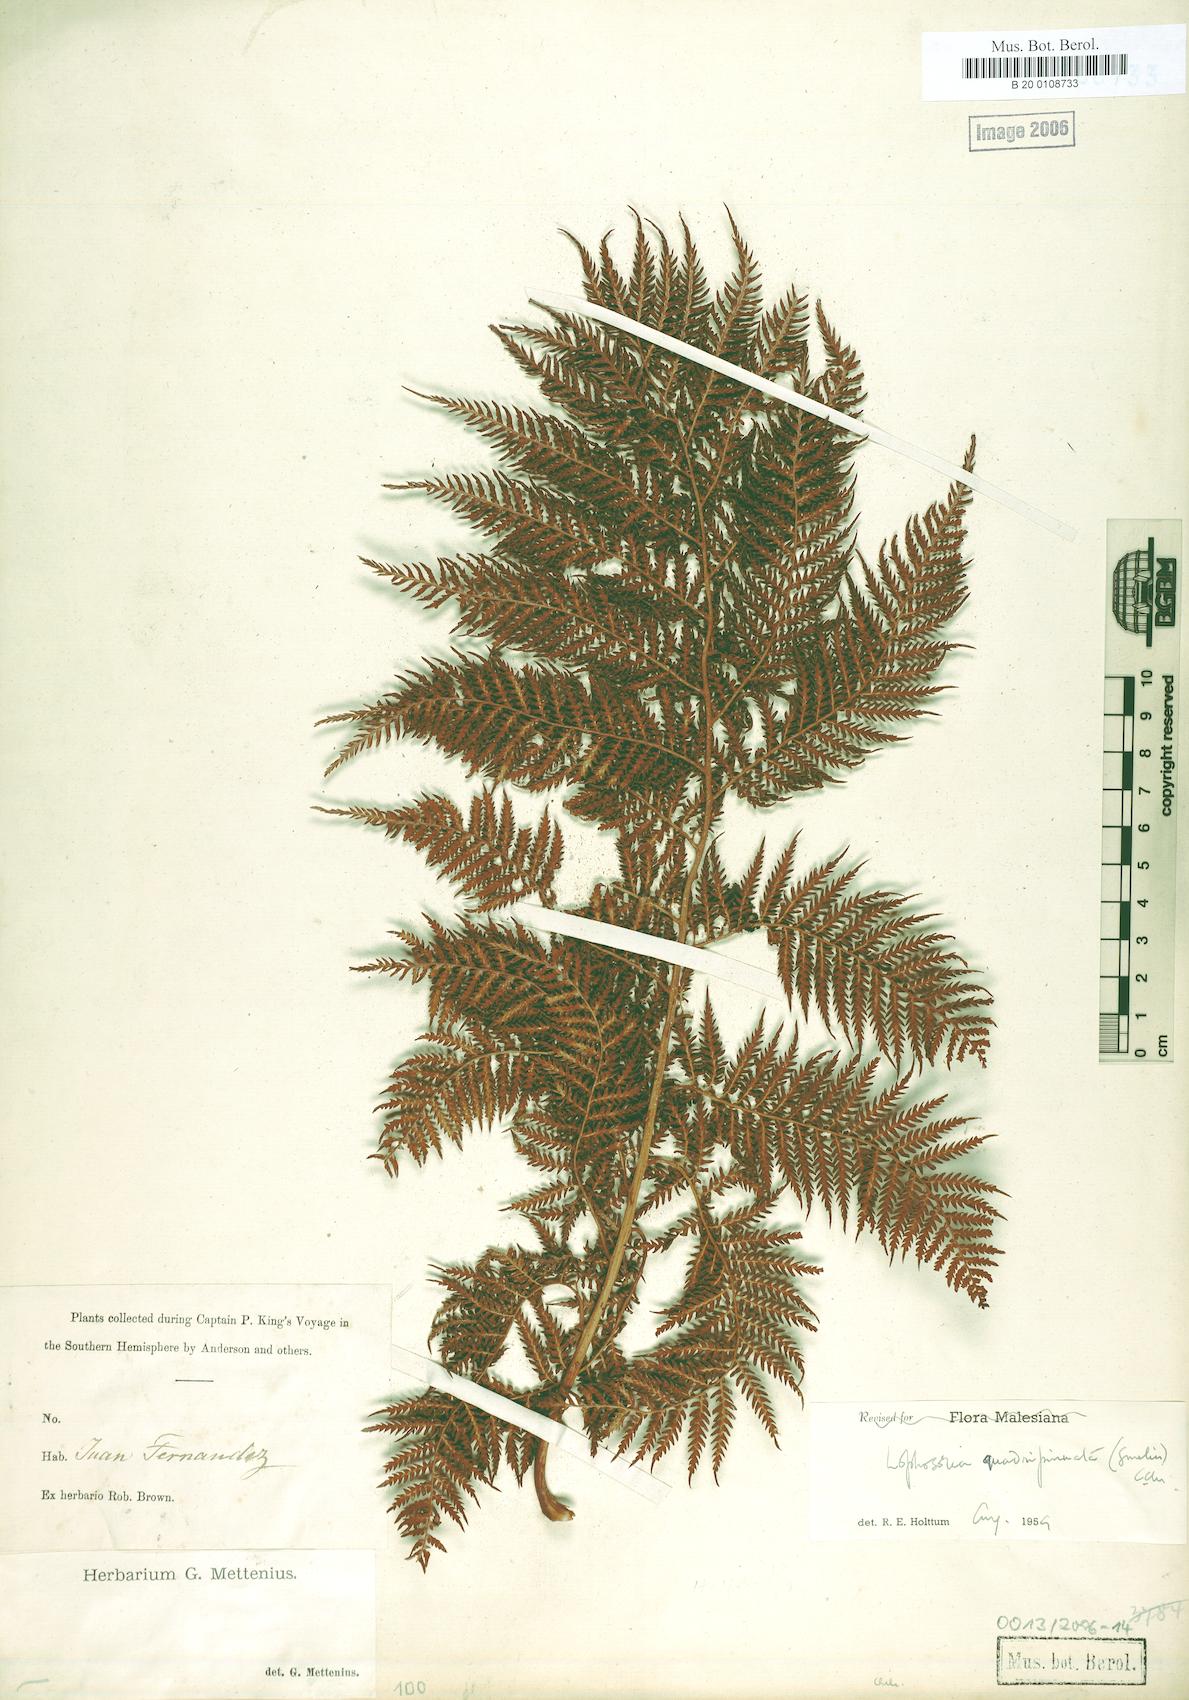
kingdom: Plantae
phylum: Tracheophyta
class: Polypodiopsida
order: Cyatheales
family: Dicksoniaceae
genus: Lophosoria
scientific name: Lophosoria quadripinnata
